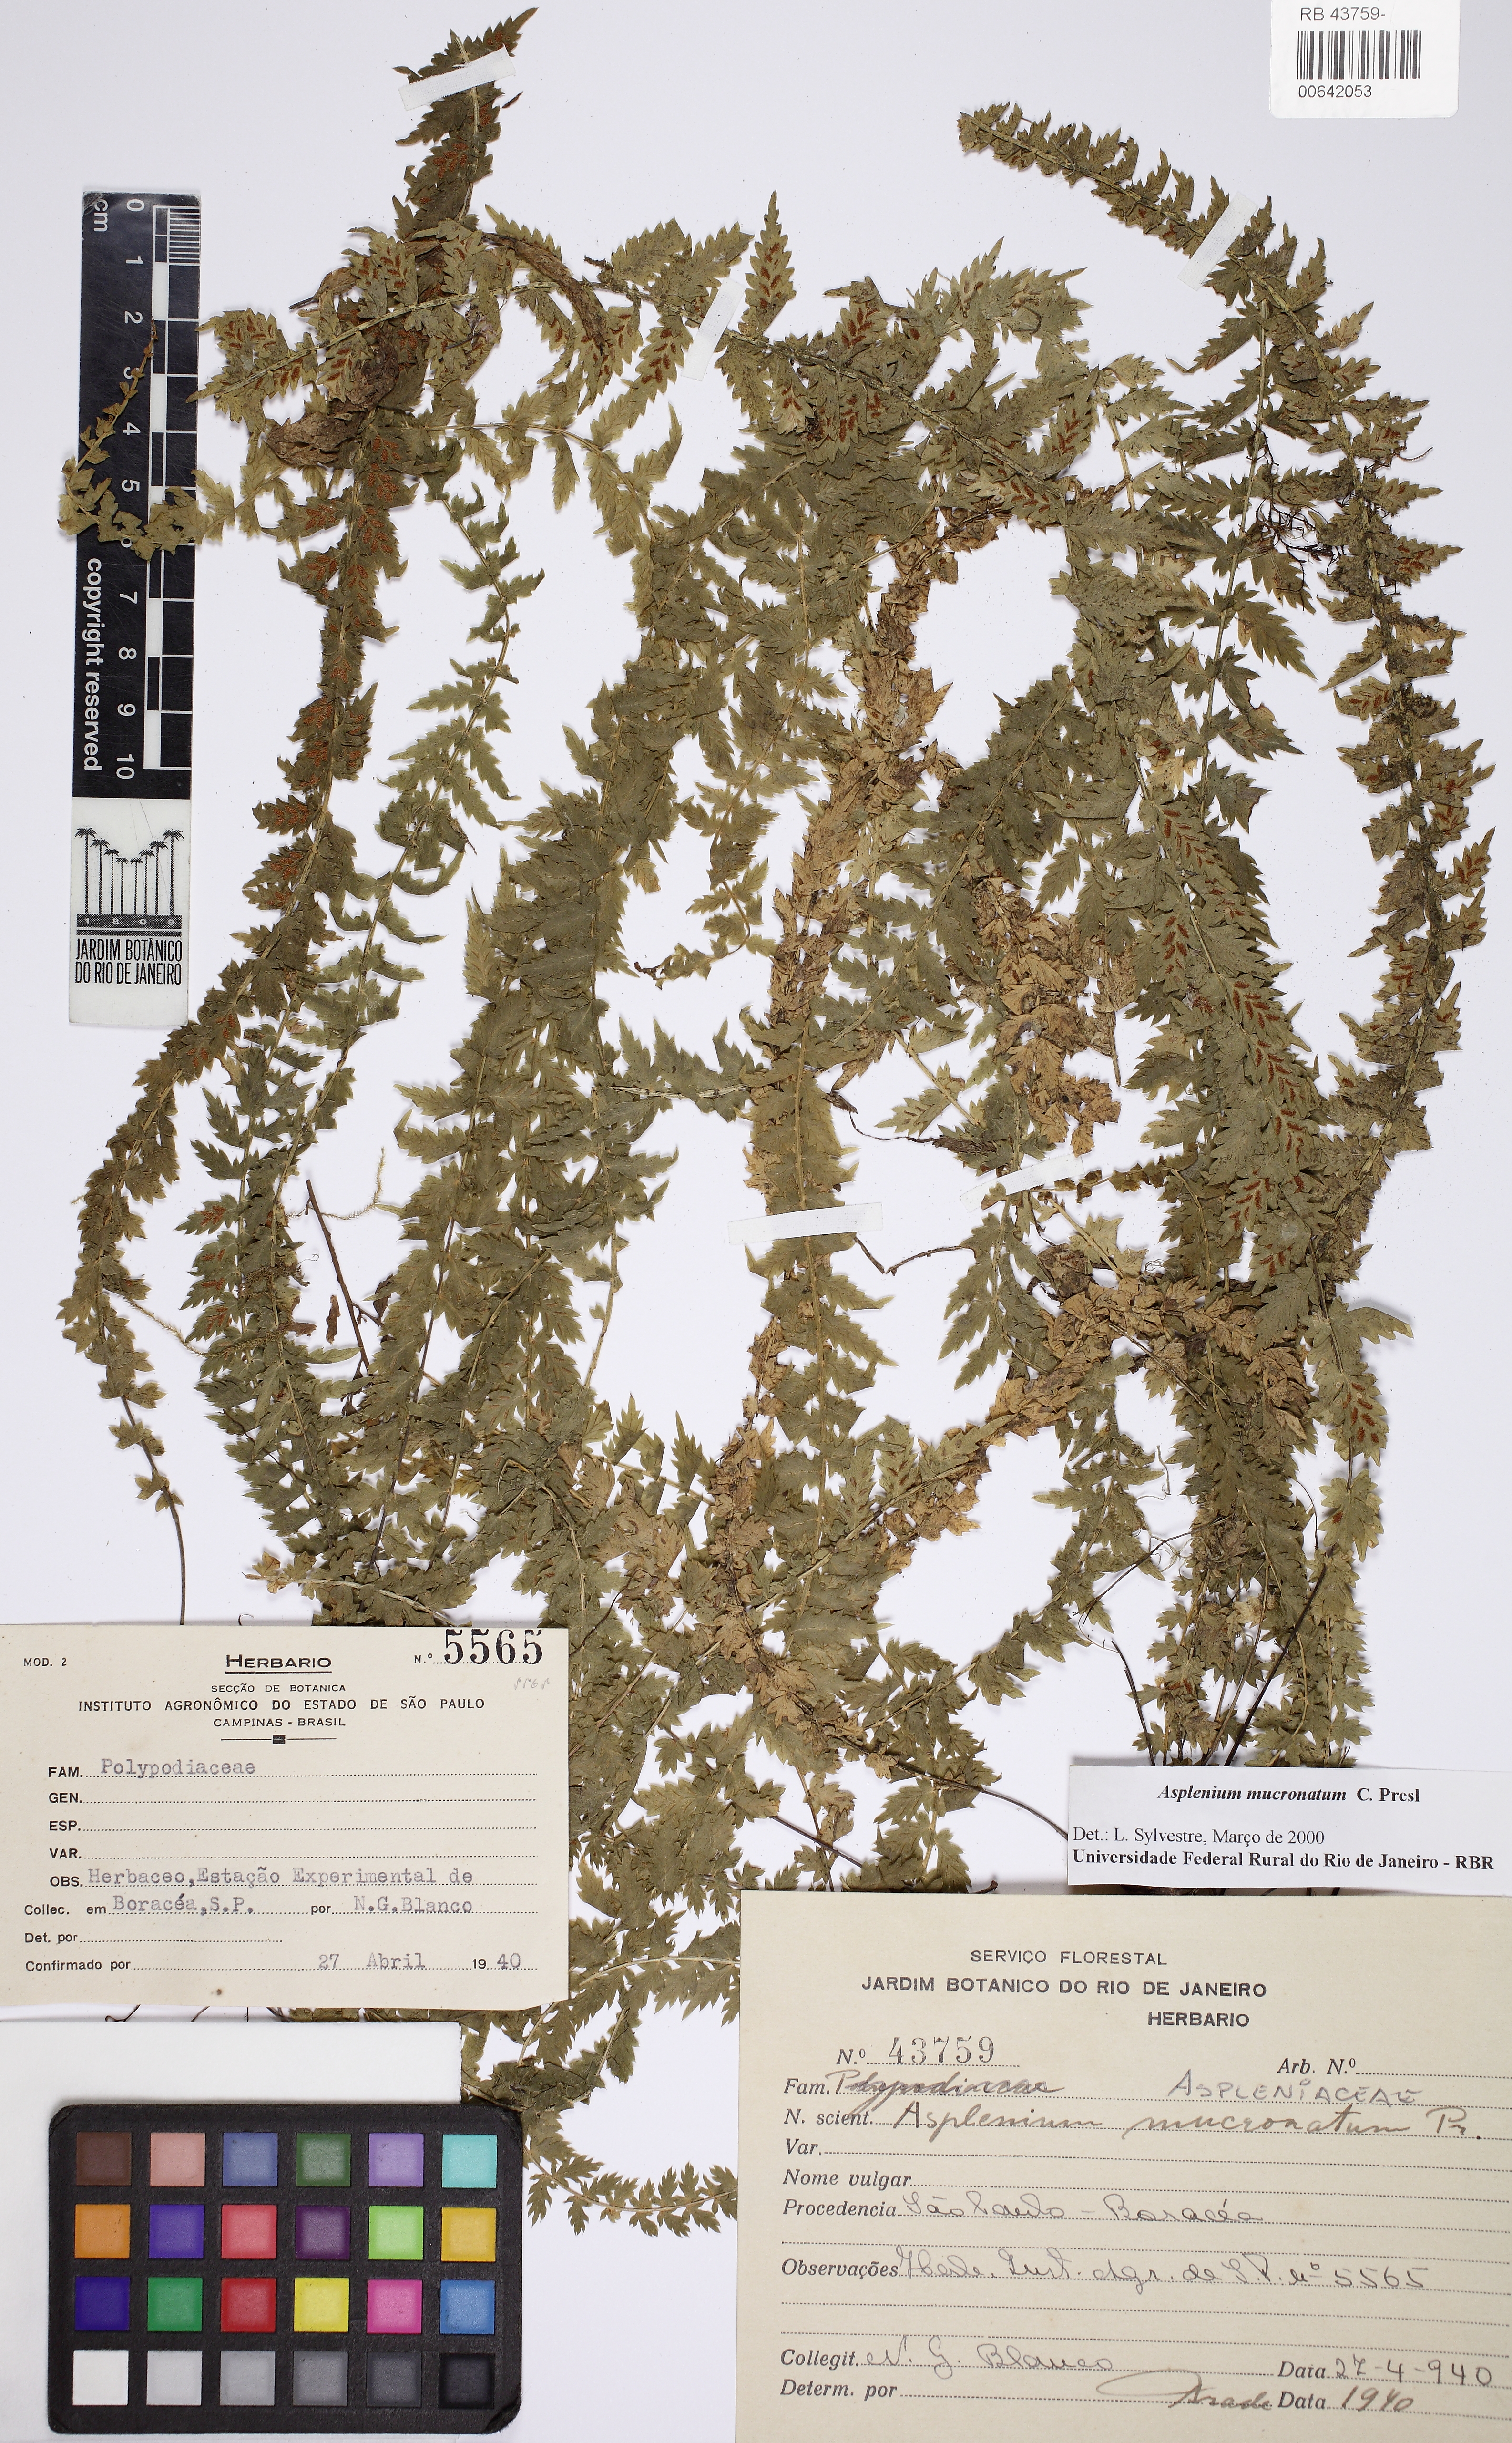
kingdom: Plantae
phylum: Tracheophyta
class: Polypodiopsida
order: Polypodiales
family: Aspleniaceae
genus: Asplenium
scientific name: Asplenium mucronatum
